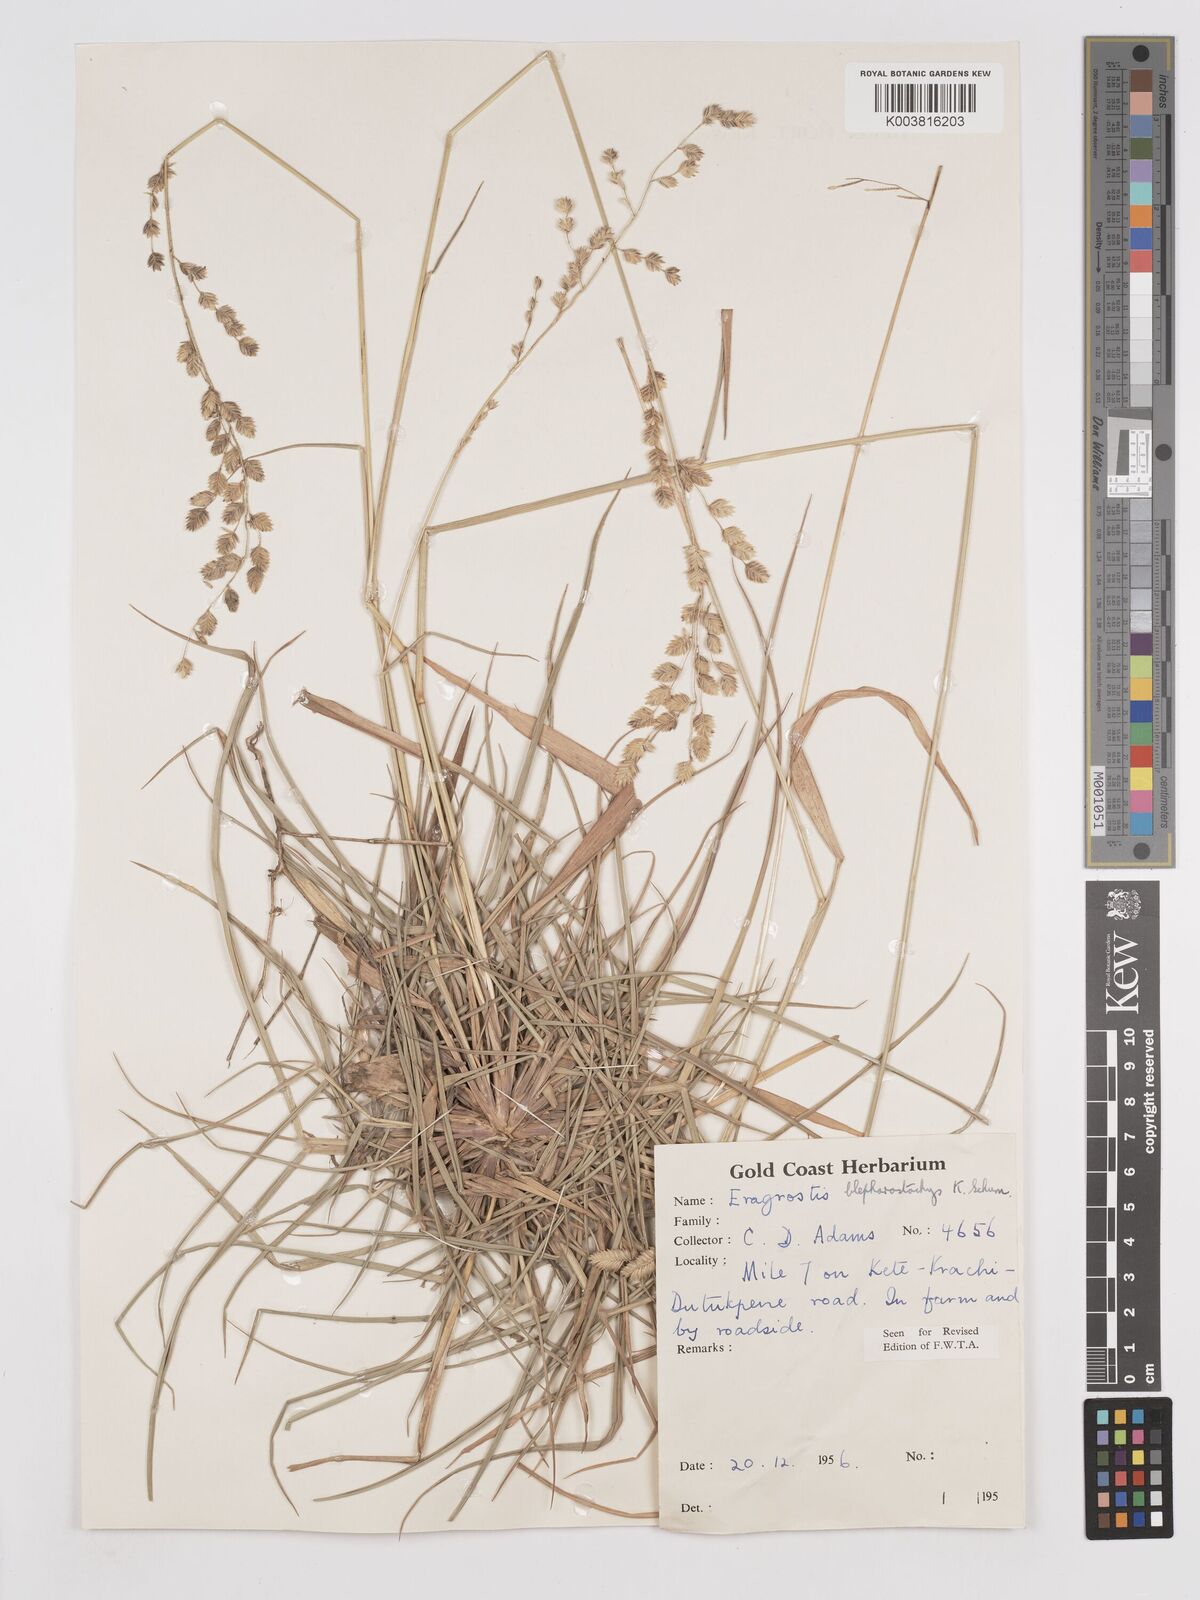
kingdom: Plantae
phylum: Tracheophyta
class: Liliopsida
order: Poales
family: Poaceae
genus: Eragrostis
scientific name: Eragrostis blepharostachya
